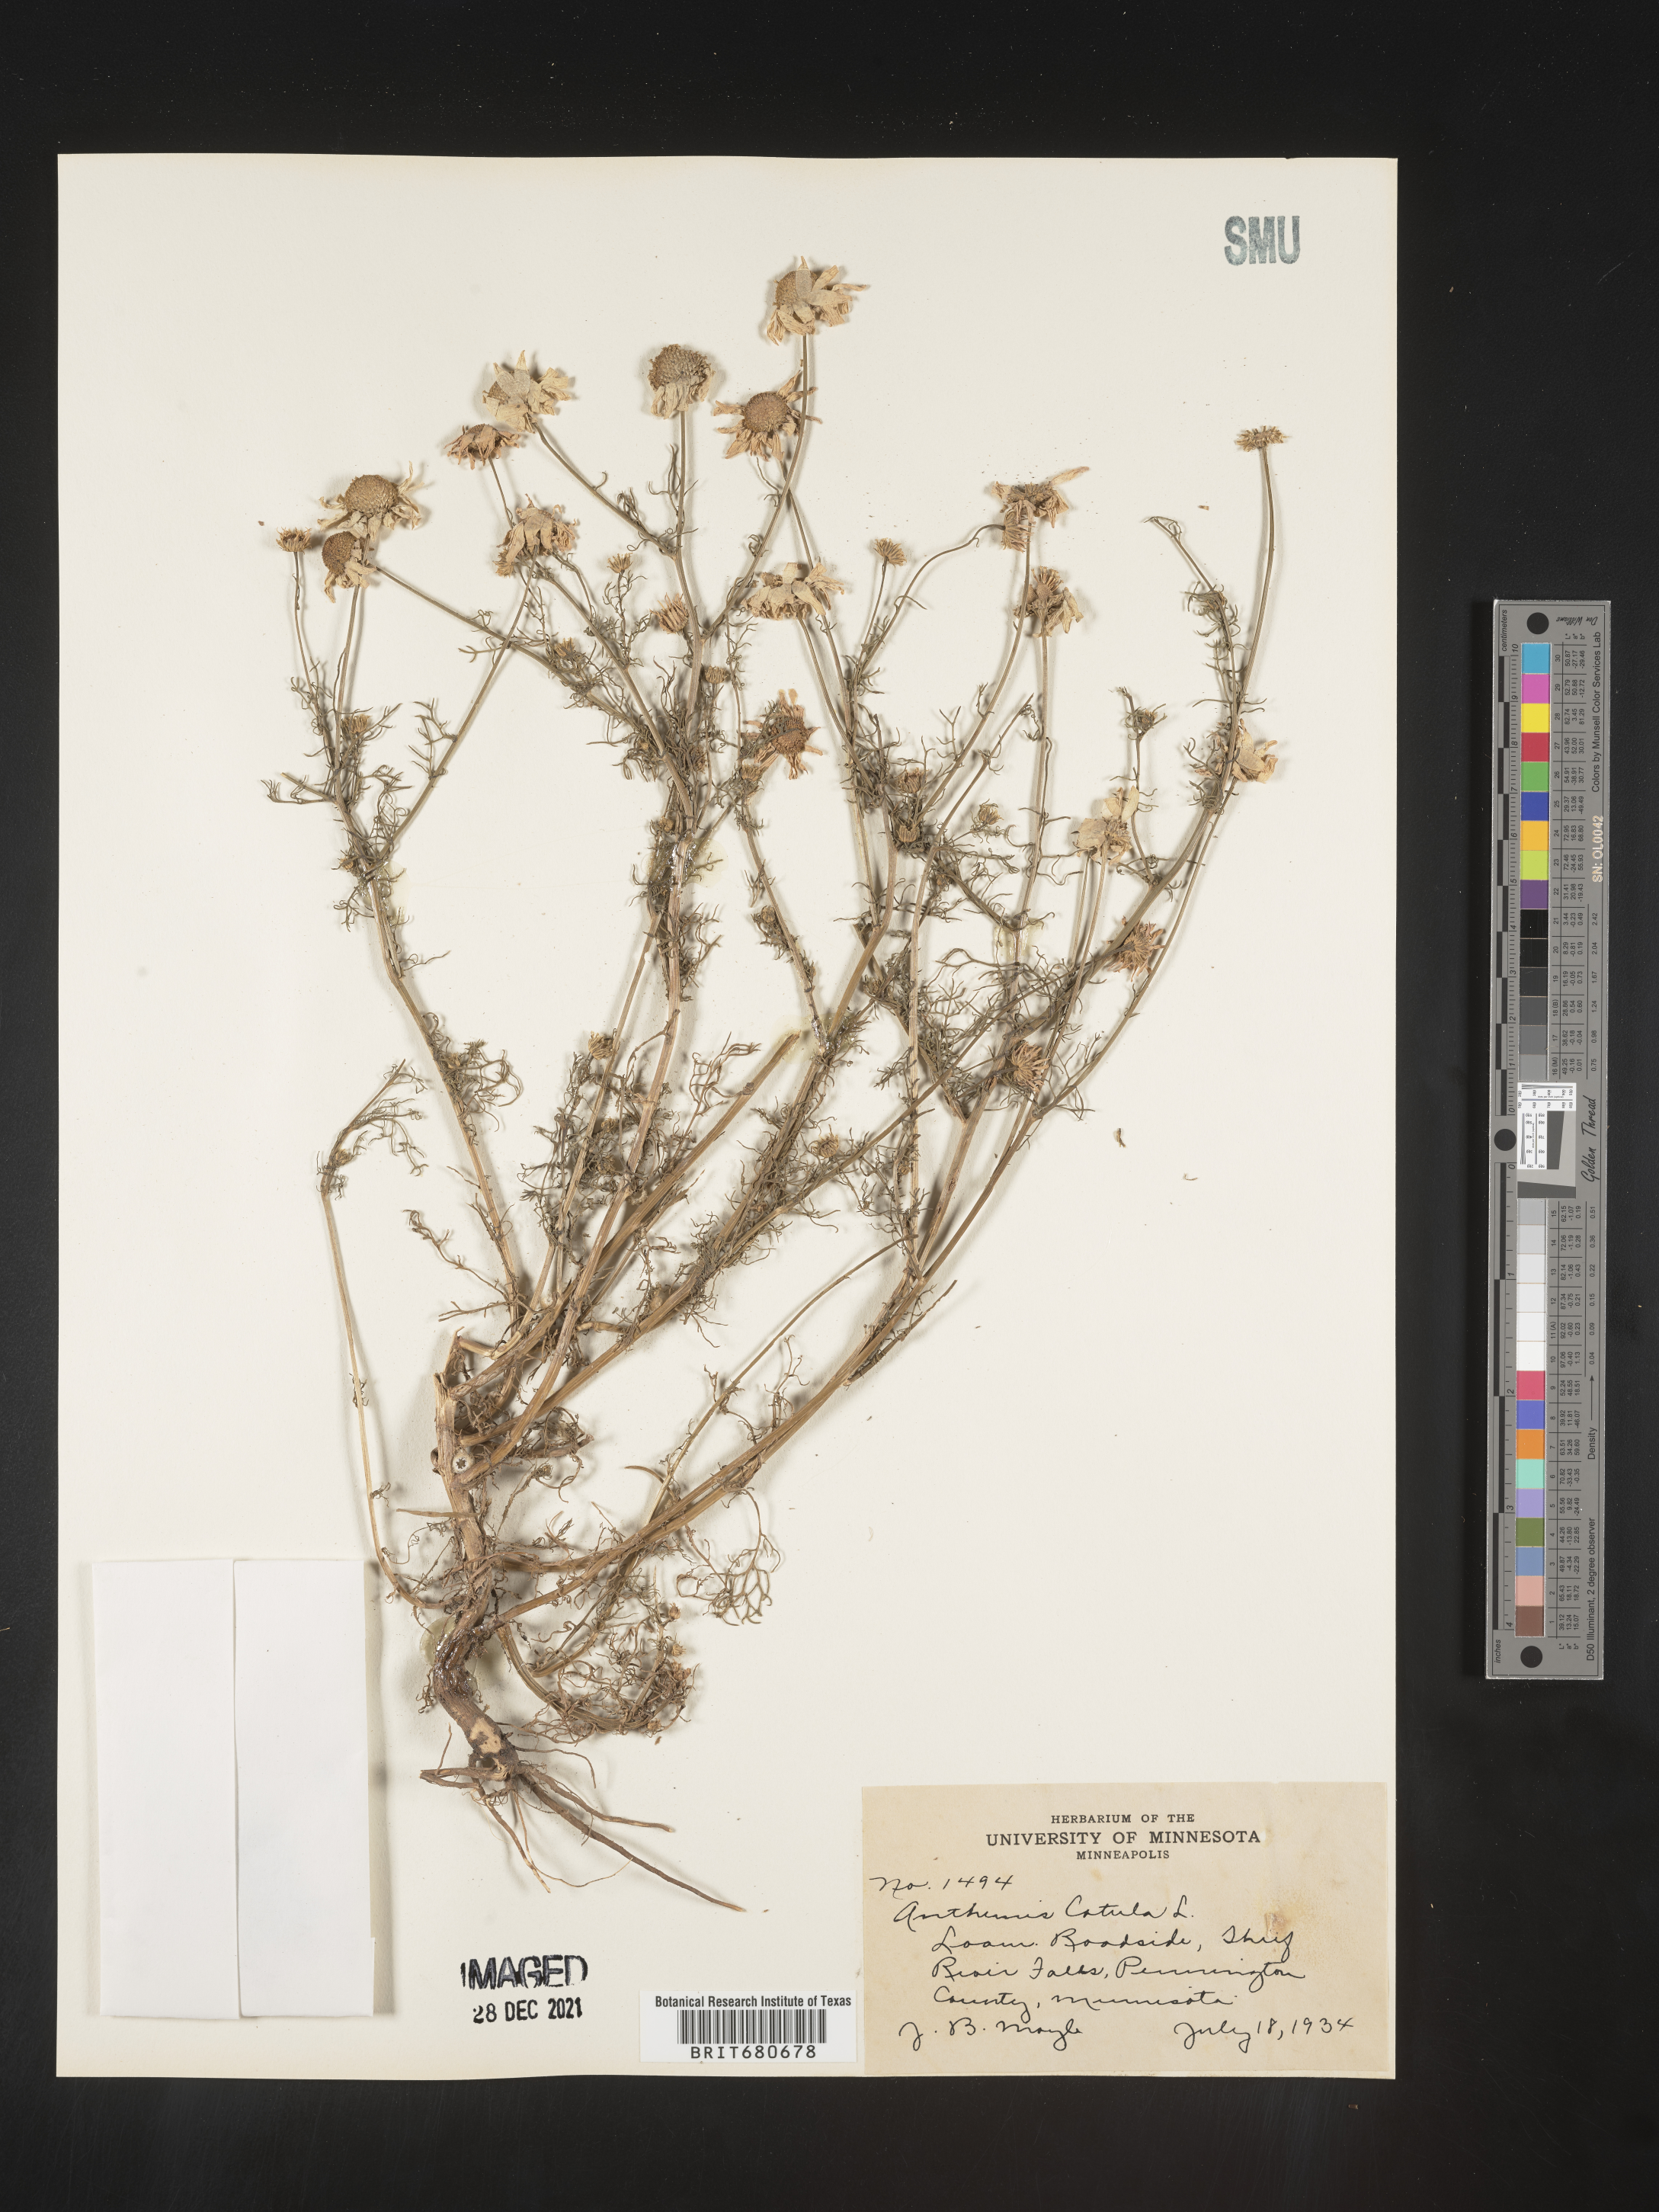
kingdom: Plantae
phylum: Tracheophyta
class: Magnoliopsida
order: Asterales
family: Asteraceae
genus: Anthemis
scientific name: Anthemis cotula
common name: Stinking chamomile
